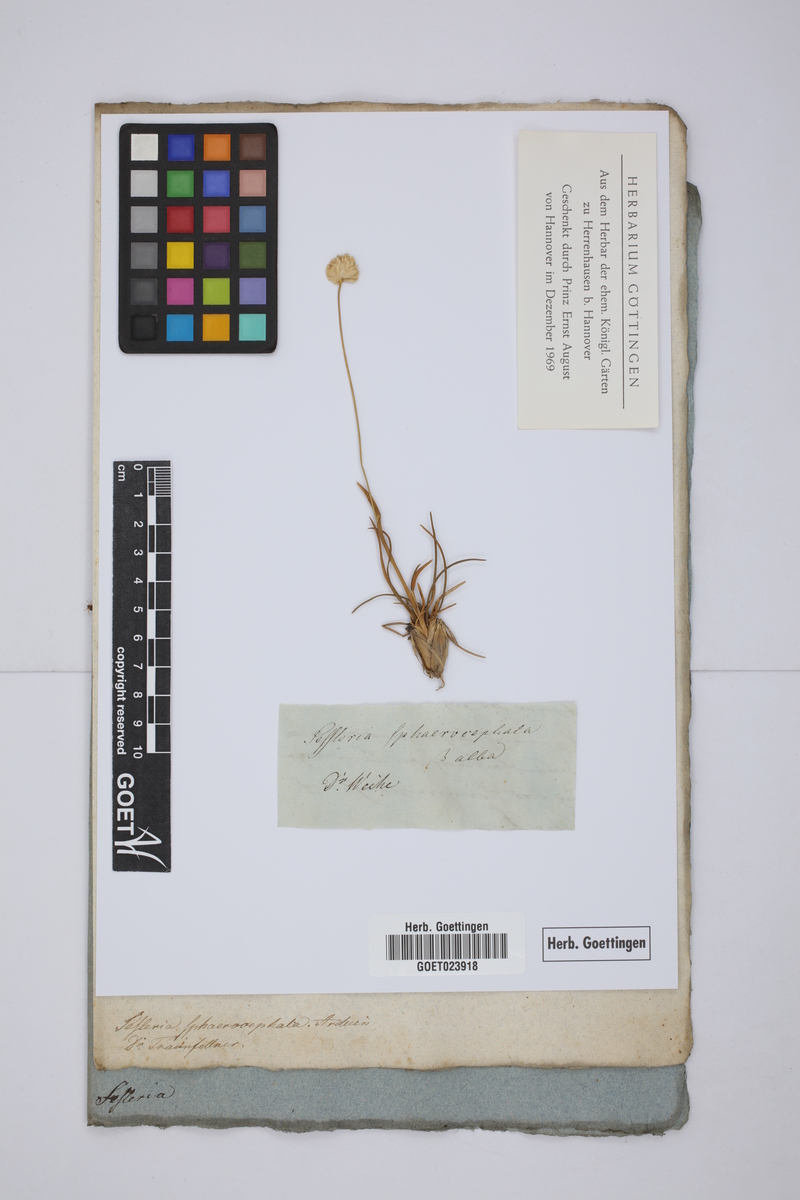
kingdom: Plantae
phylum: Tracheophyta
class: Liliopsida
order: Poales
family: Poaceae
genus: Sesleriella
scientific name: Sesleriella sphaerocephala
